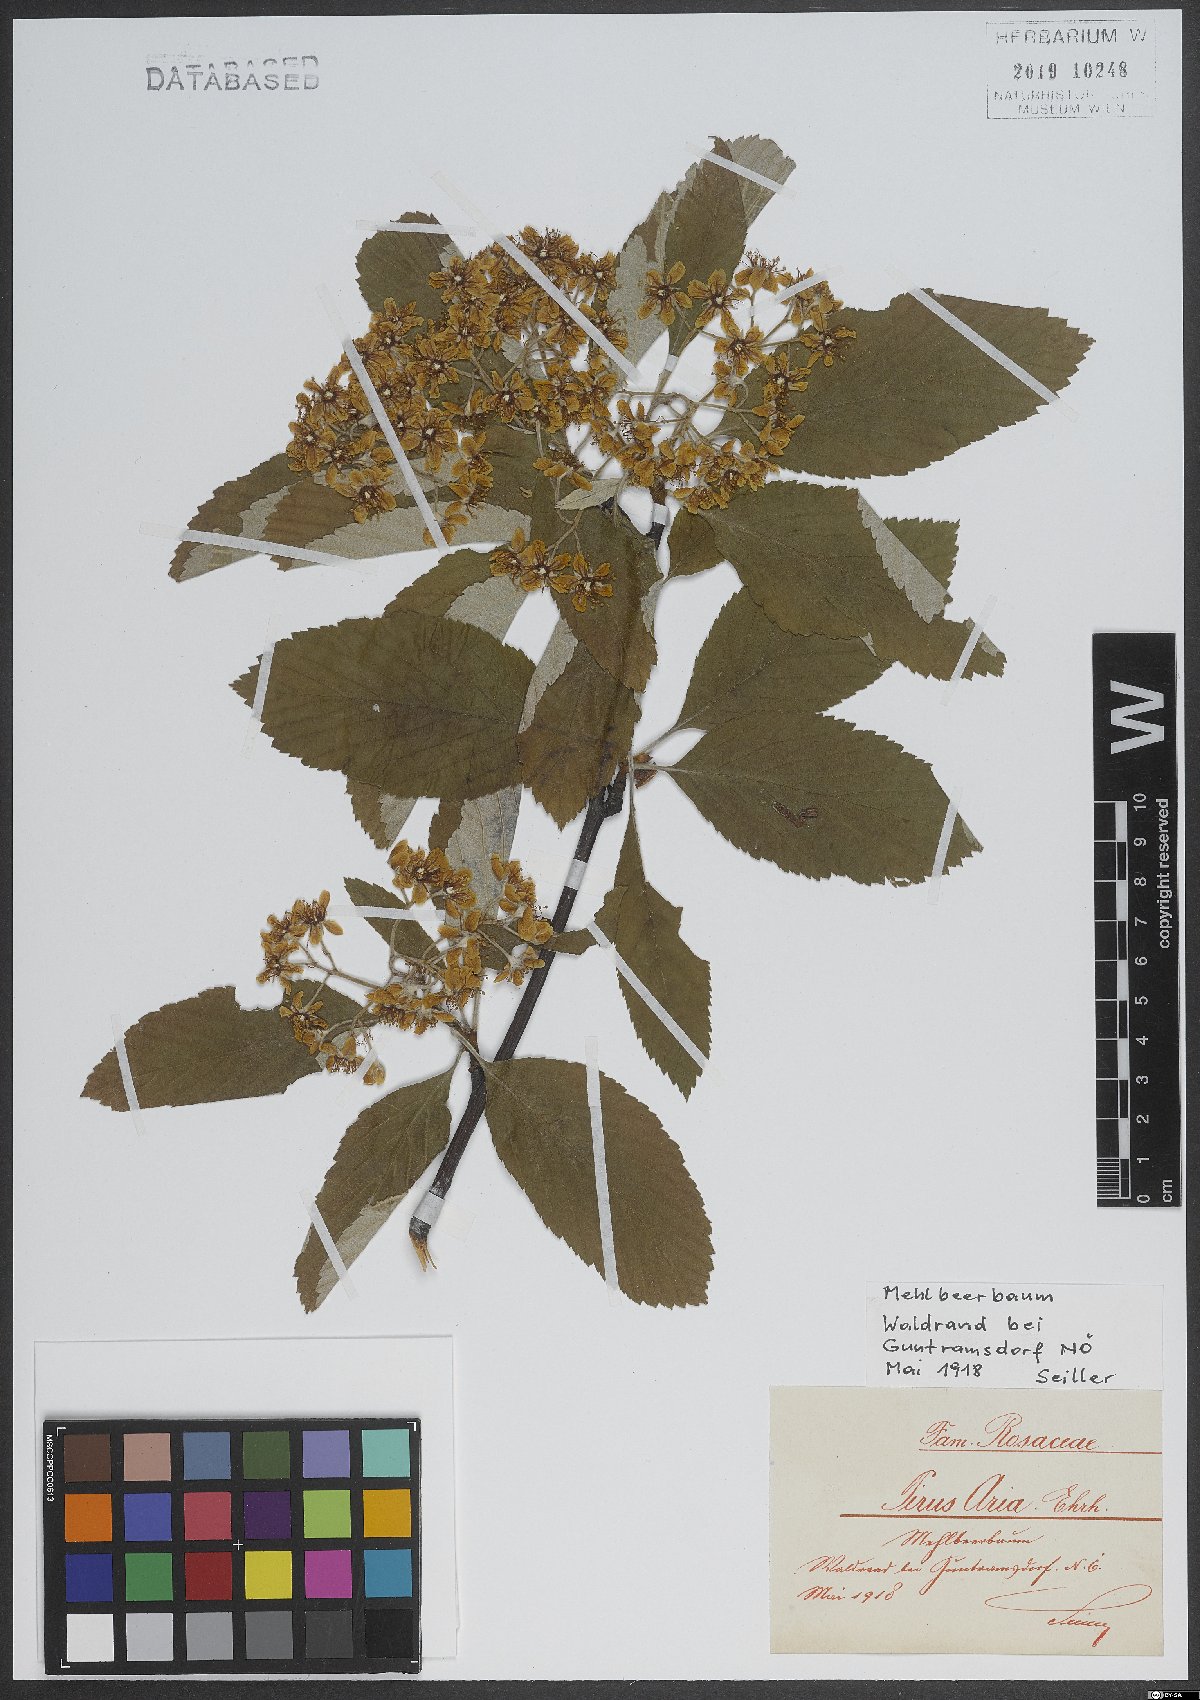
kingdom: Plantae
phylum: Tracheophyta
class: Magnoliopsida
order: Rosales
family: Rosaceae
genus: Aria
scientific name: Aria edulis
